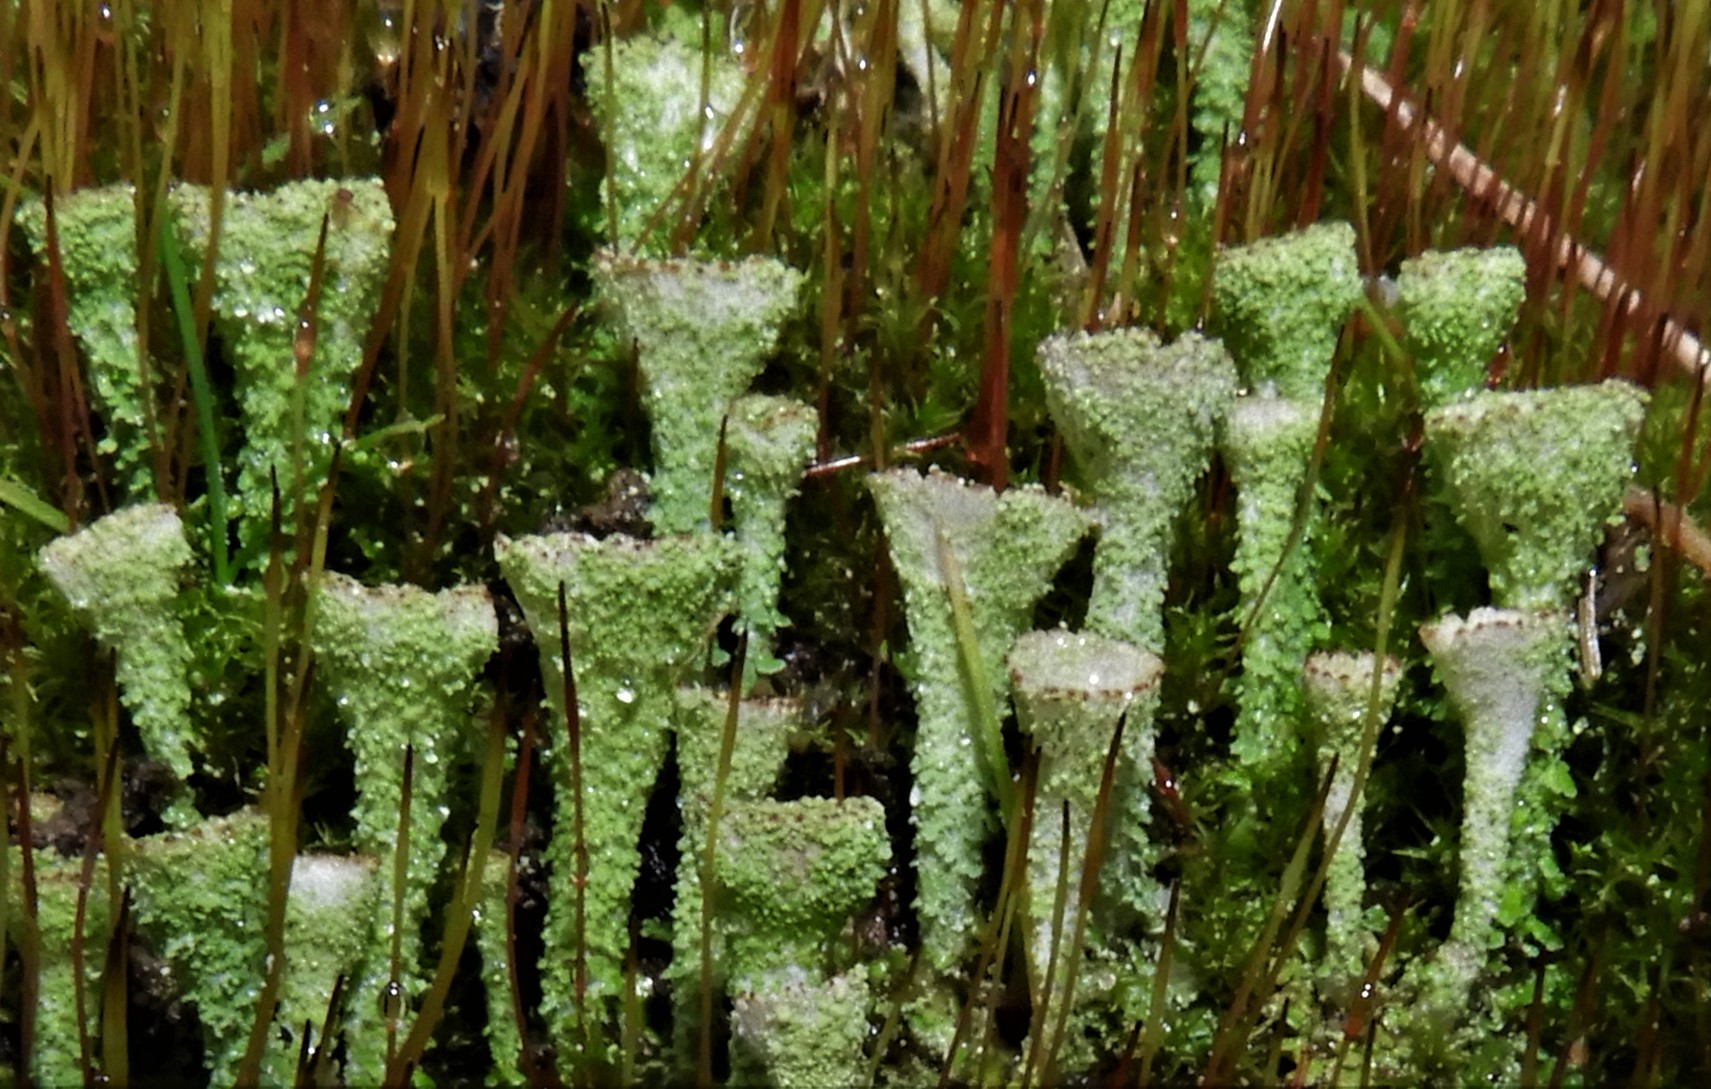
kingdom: Fungi
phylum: Ascomycota
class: Lecanoromycetes
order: Lecanorales
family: Cladoniaceae
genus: Cladonia
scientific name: Cladonia
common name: brungrøn bægerlav
